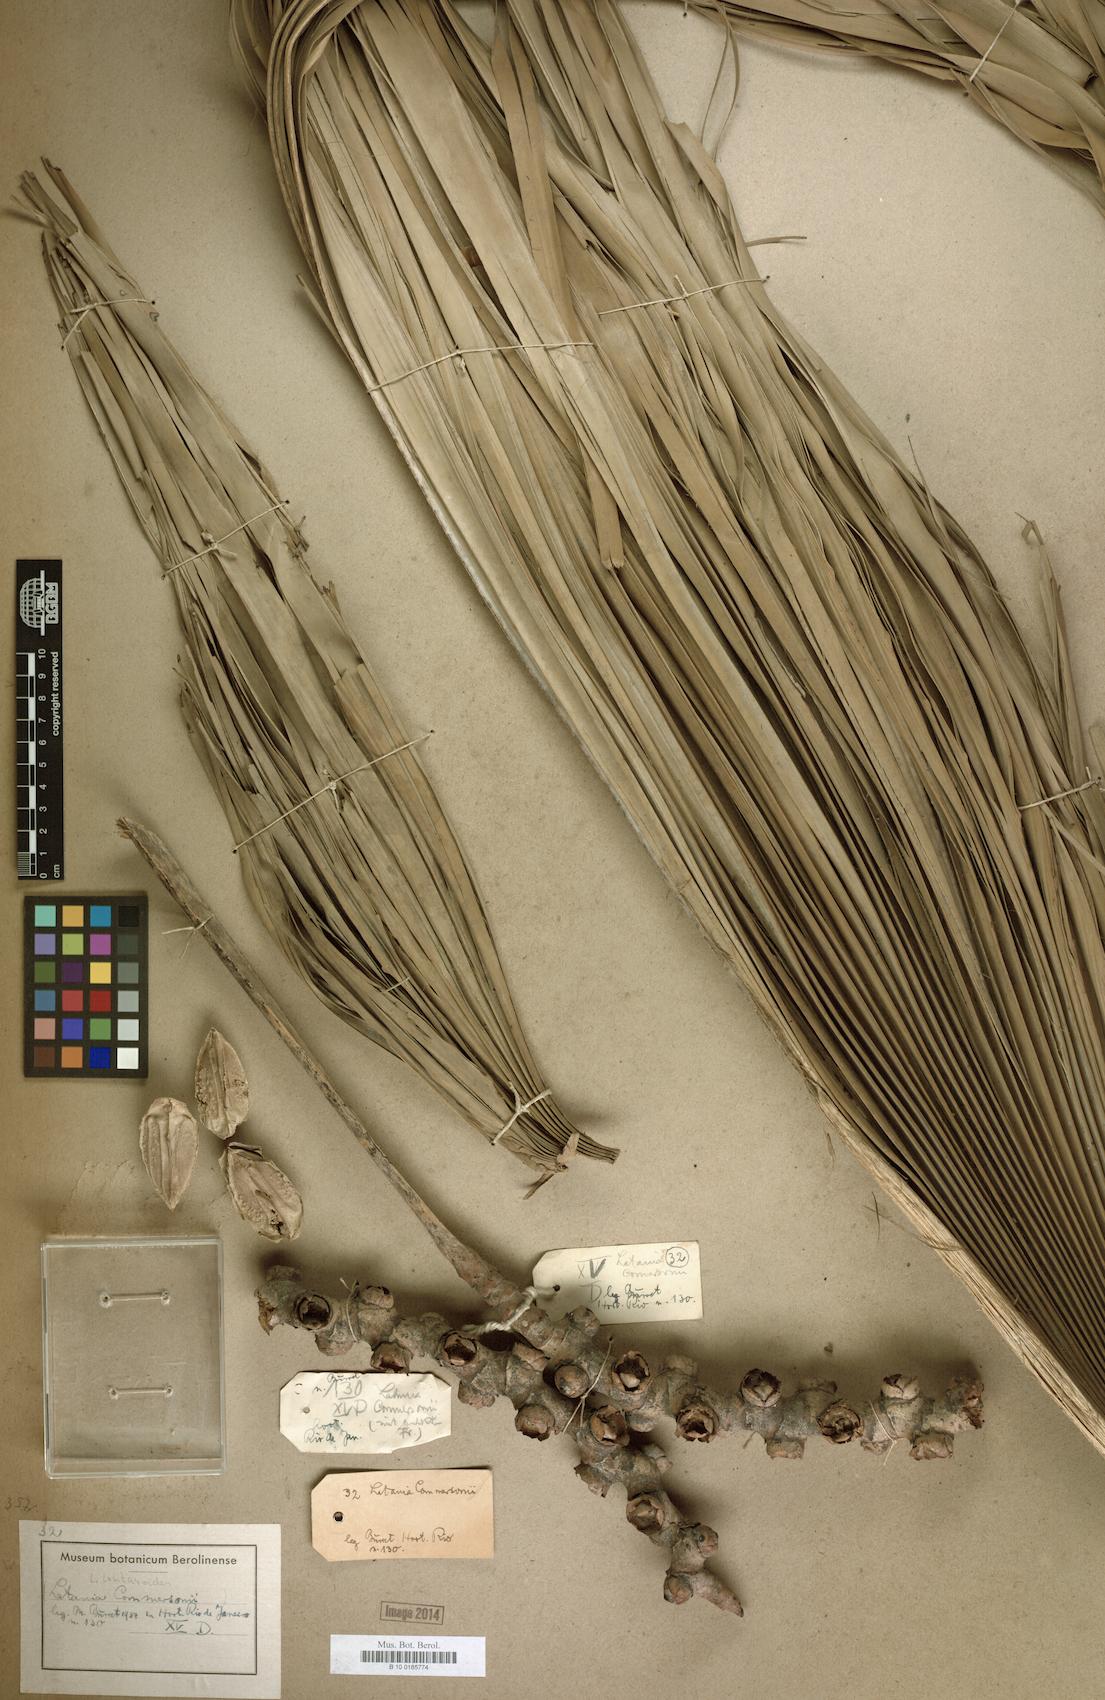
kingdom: Plantae
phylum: Tracheophyta
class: Liliopsida
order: Arecales
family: Arecaceae
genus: Latania
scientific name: Latania lontaroides
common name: Red latan
